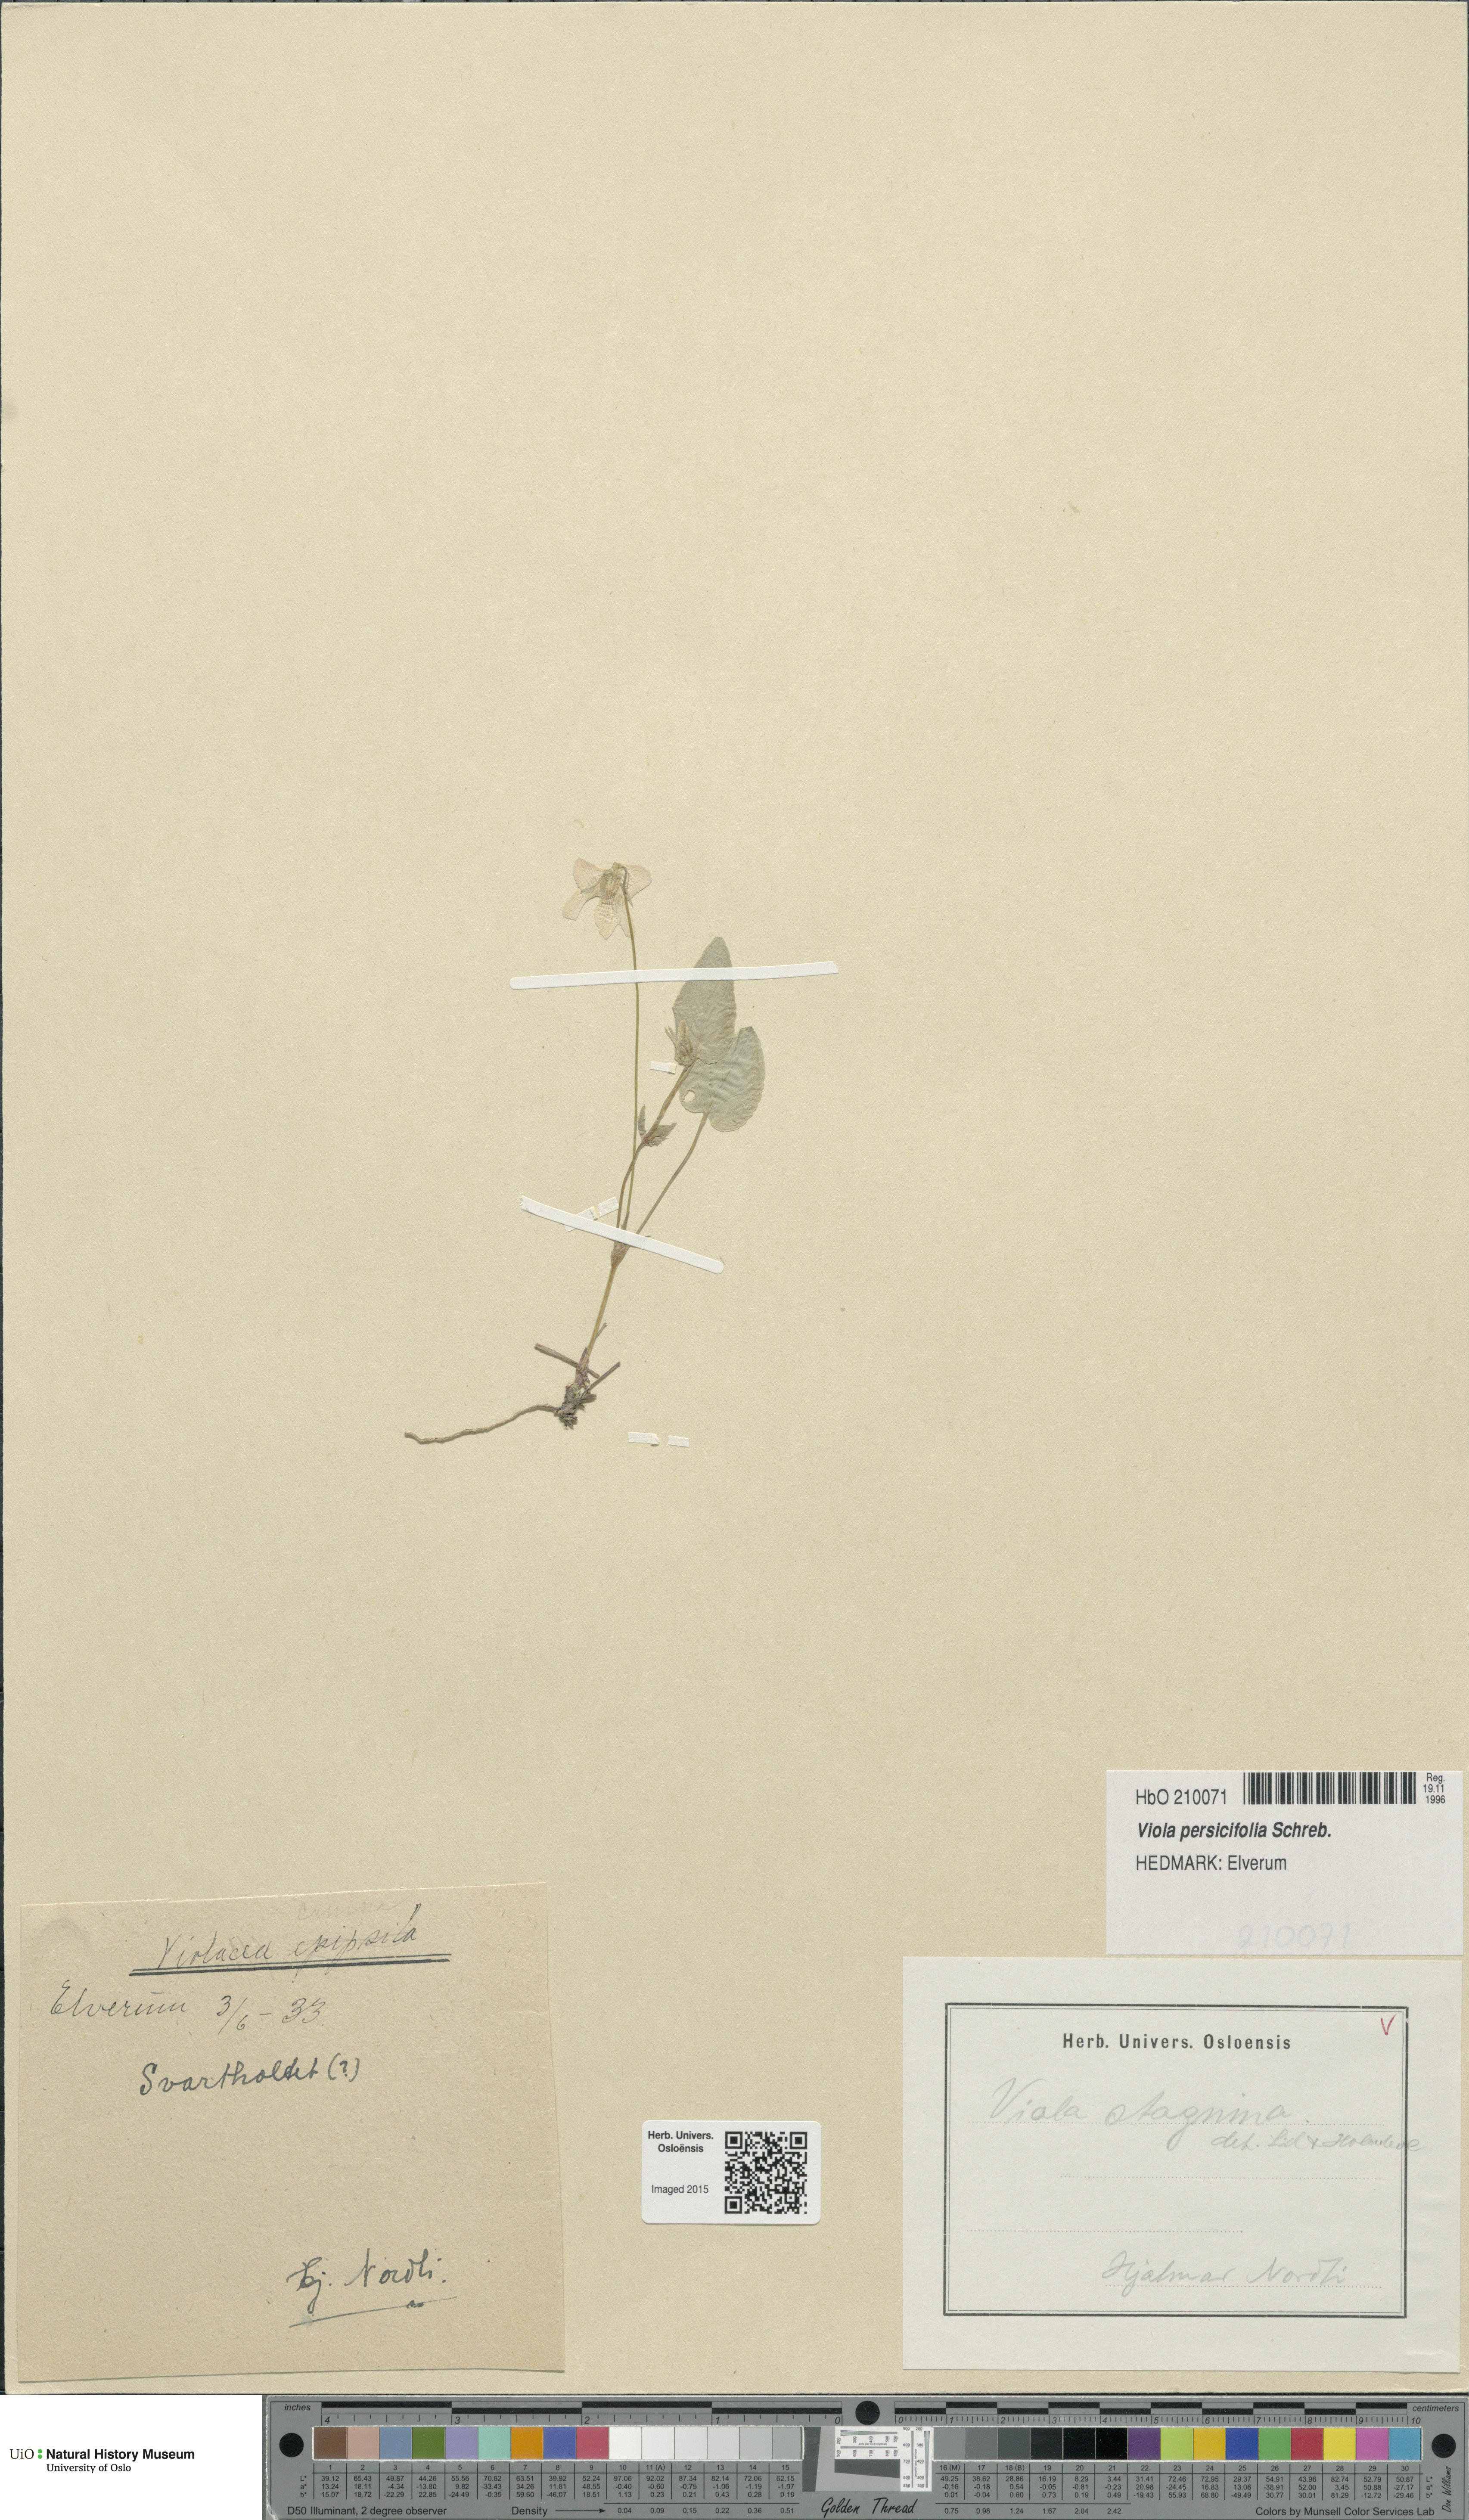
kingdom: Plantae
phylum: Tracheophyta
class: Magnoliopsida
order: Malpighiales
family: Violaceae
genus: Viola
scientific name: Viola stagnina
